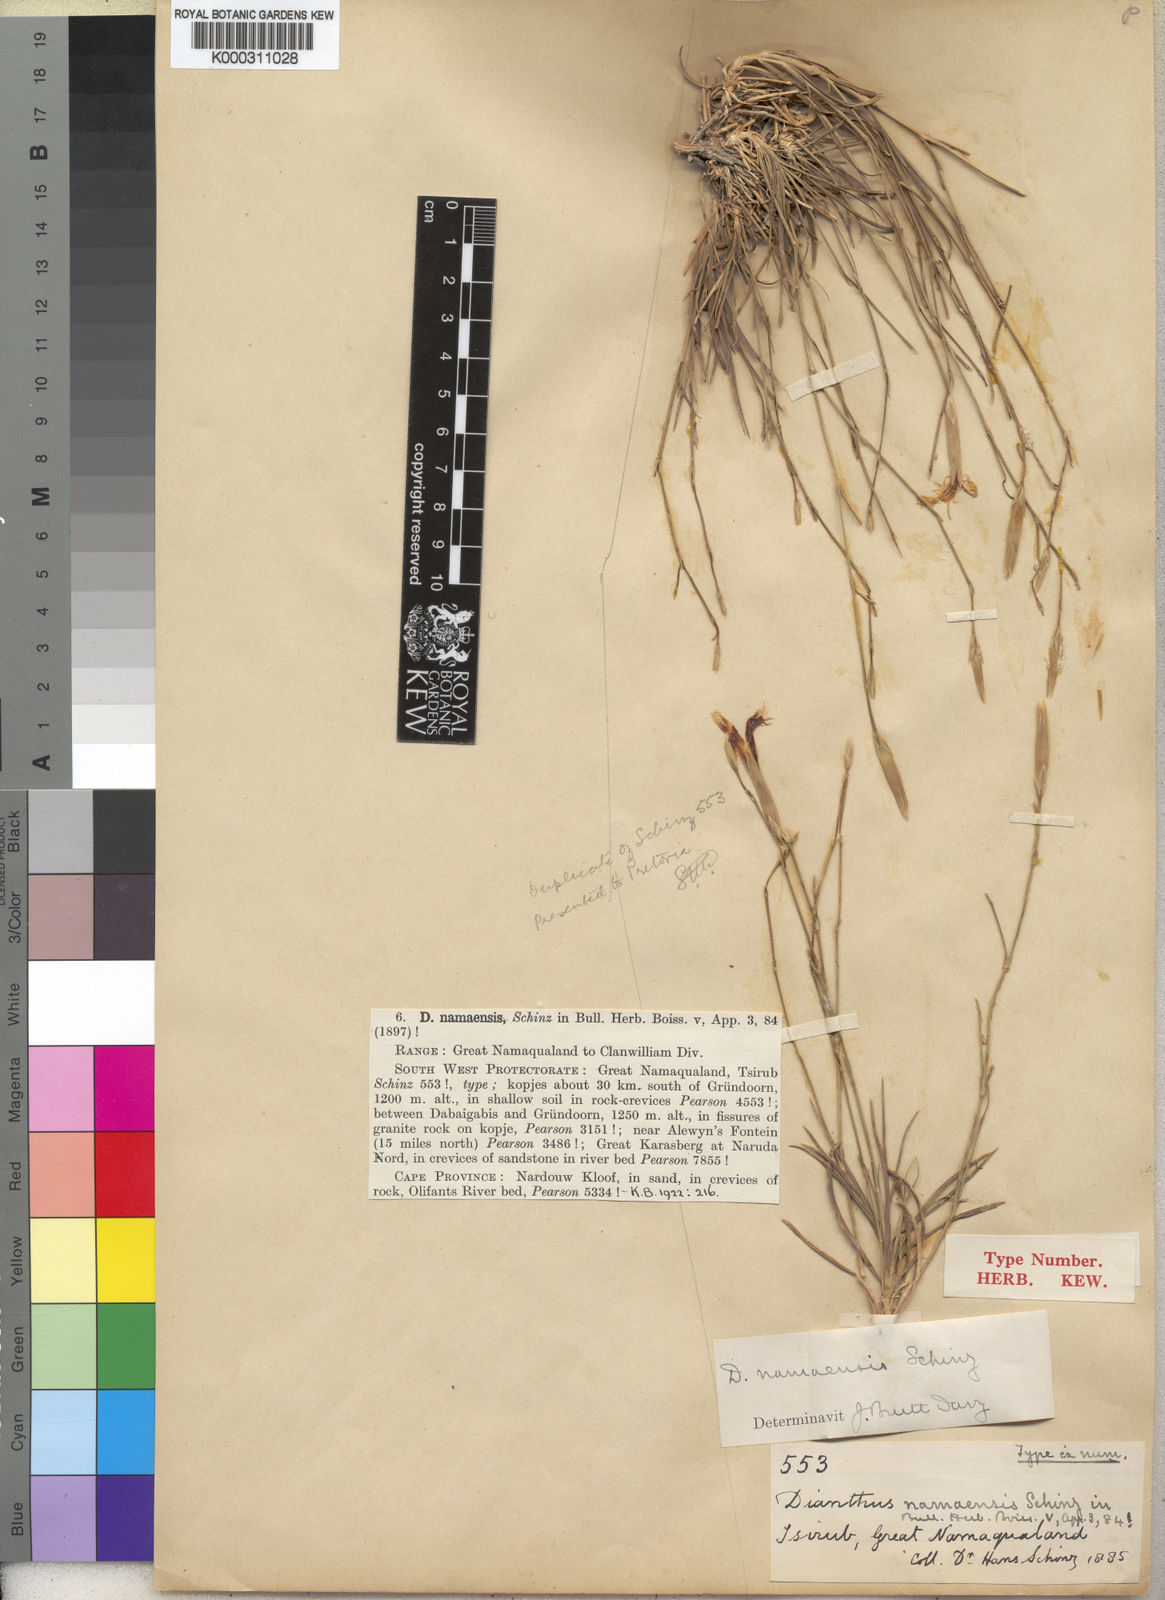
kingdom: Plantae
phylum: Tracheophyta
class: Magnoliopsida
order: Caryophyllales
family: Caryophyllaceae
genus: Dianthus
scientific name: Dianthus namaensis
